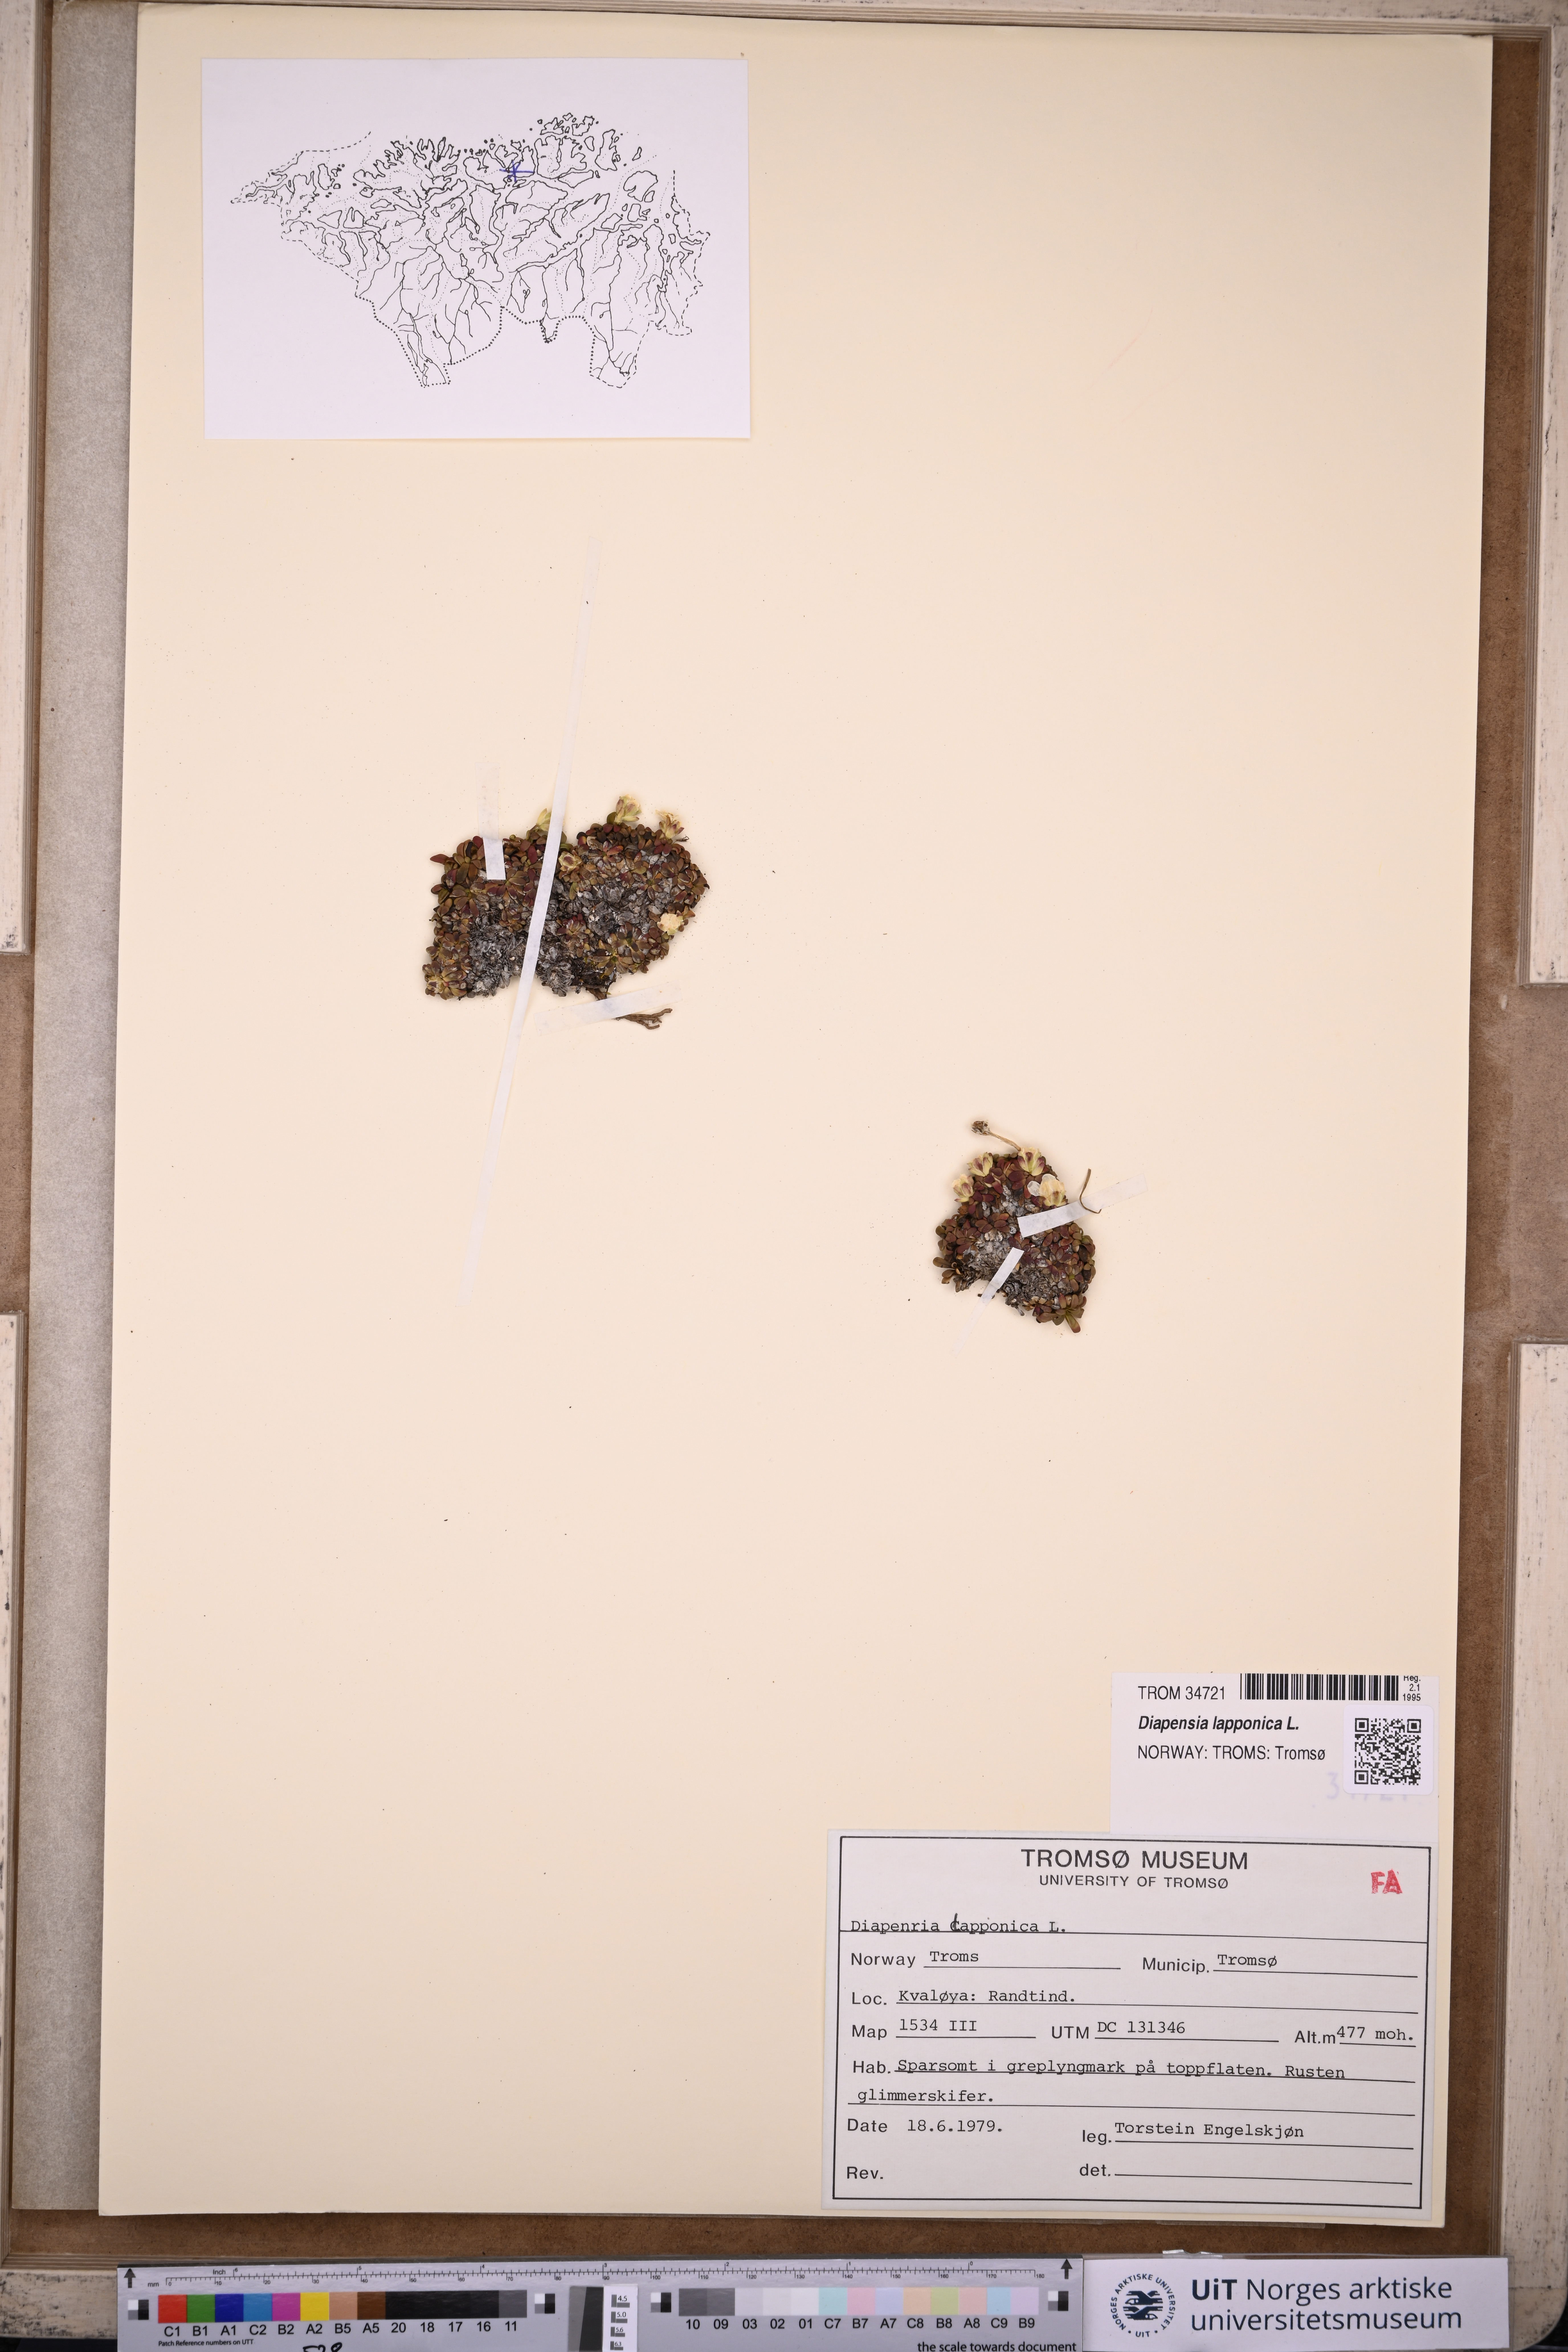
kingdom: Plantae
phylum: Tracheophyta
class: Magnoliopsida
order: Ericales
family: Diapensiaceae
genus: Diapensia
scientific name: Diapensia lapponica
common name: Diapensia
